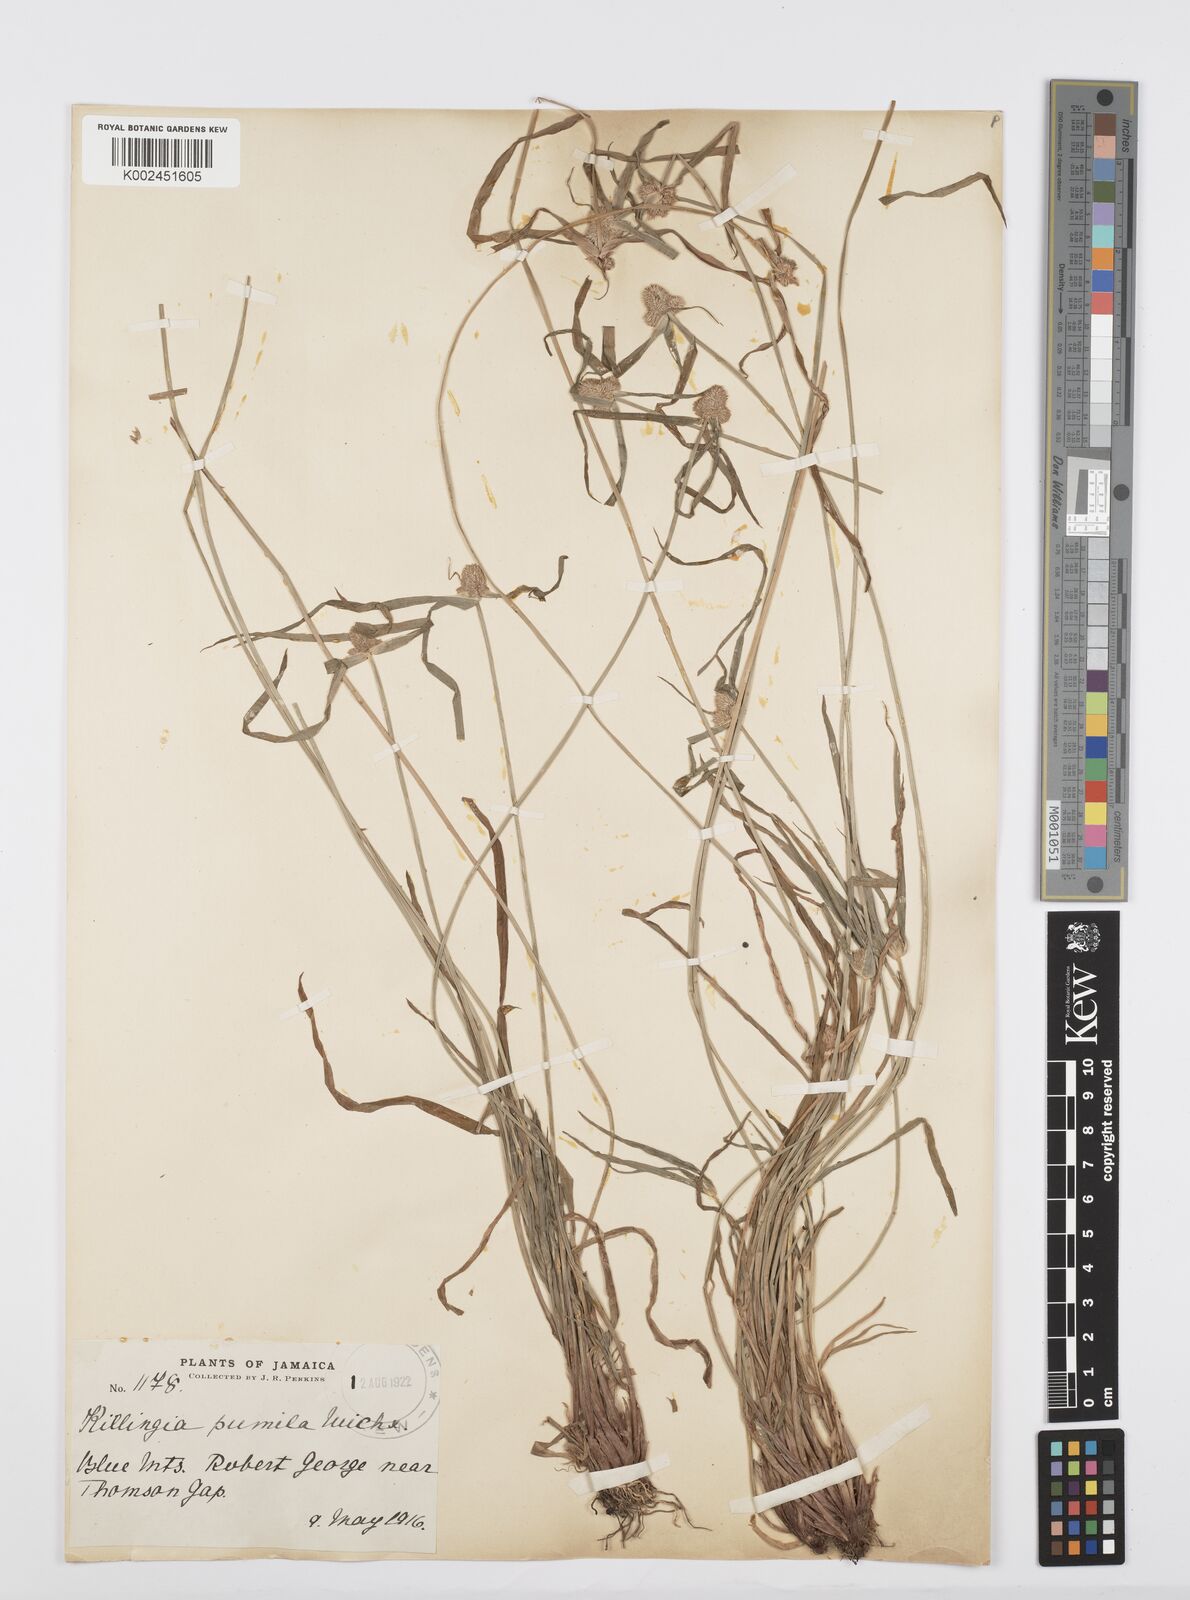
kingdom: Plantae
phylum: Tracheophyta
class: Liliopsida
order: Poales
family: Cyperaceae
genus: Cyperus
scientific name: Cyperus
